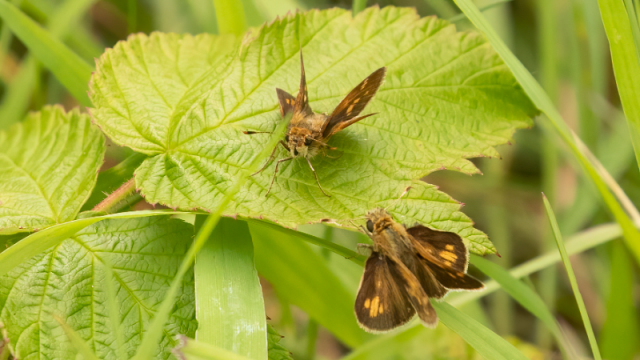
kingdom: Animalia
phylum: Arthropoda
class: Insecta
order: Lepidoptera
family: Hesperiidae
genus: Polites
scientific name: Polites coras
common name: Peck's Skipper
